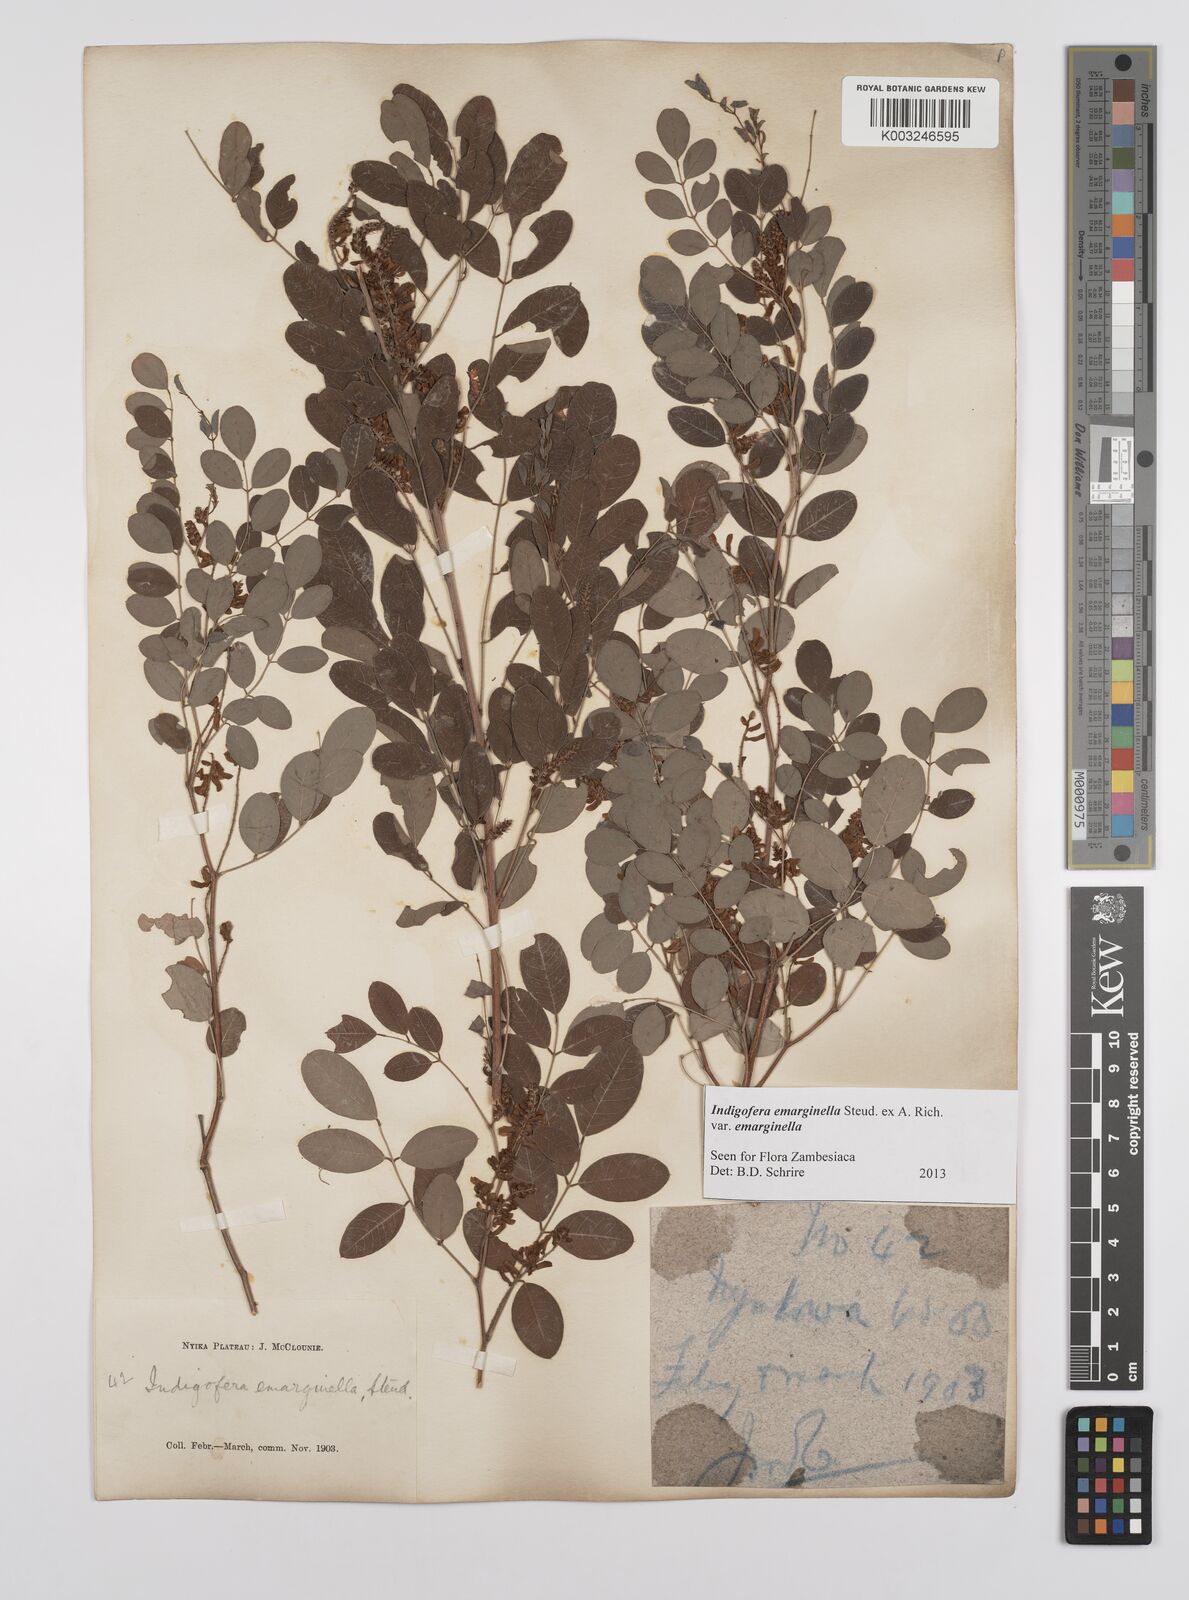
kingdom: Plantae
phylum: Tracheophyta
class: Magnoliopsida
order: Fabales
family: Fabaceae
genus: Indigofera
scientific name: Indigofera emarginella
